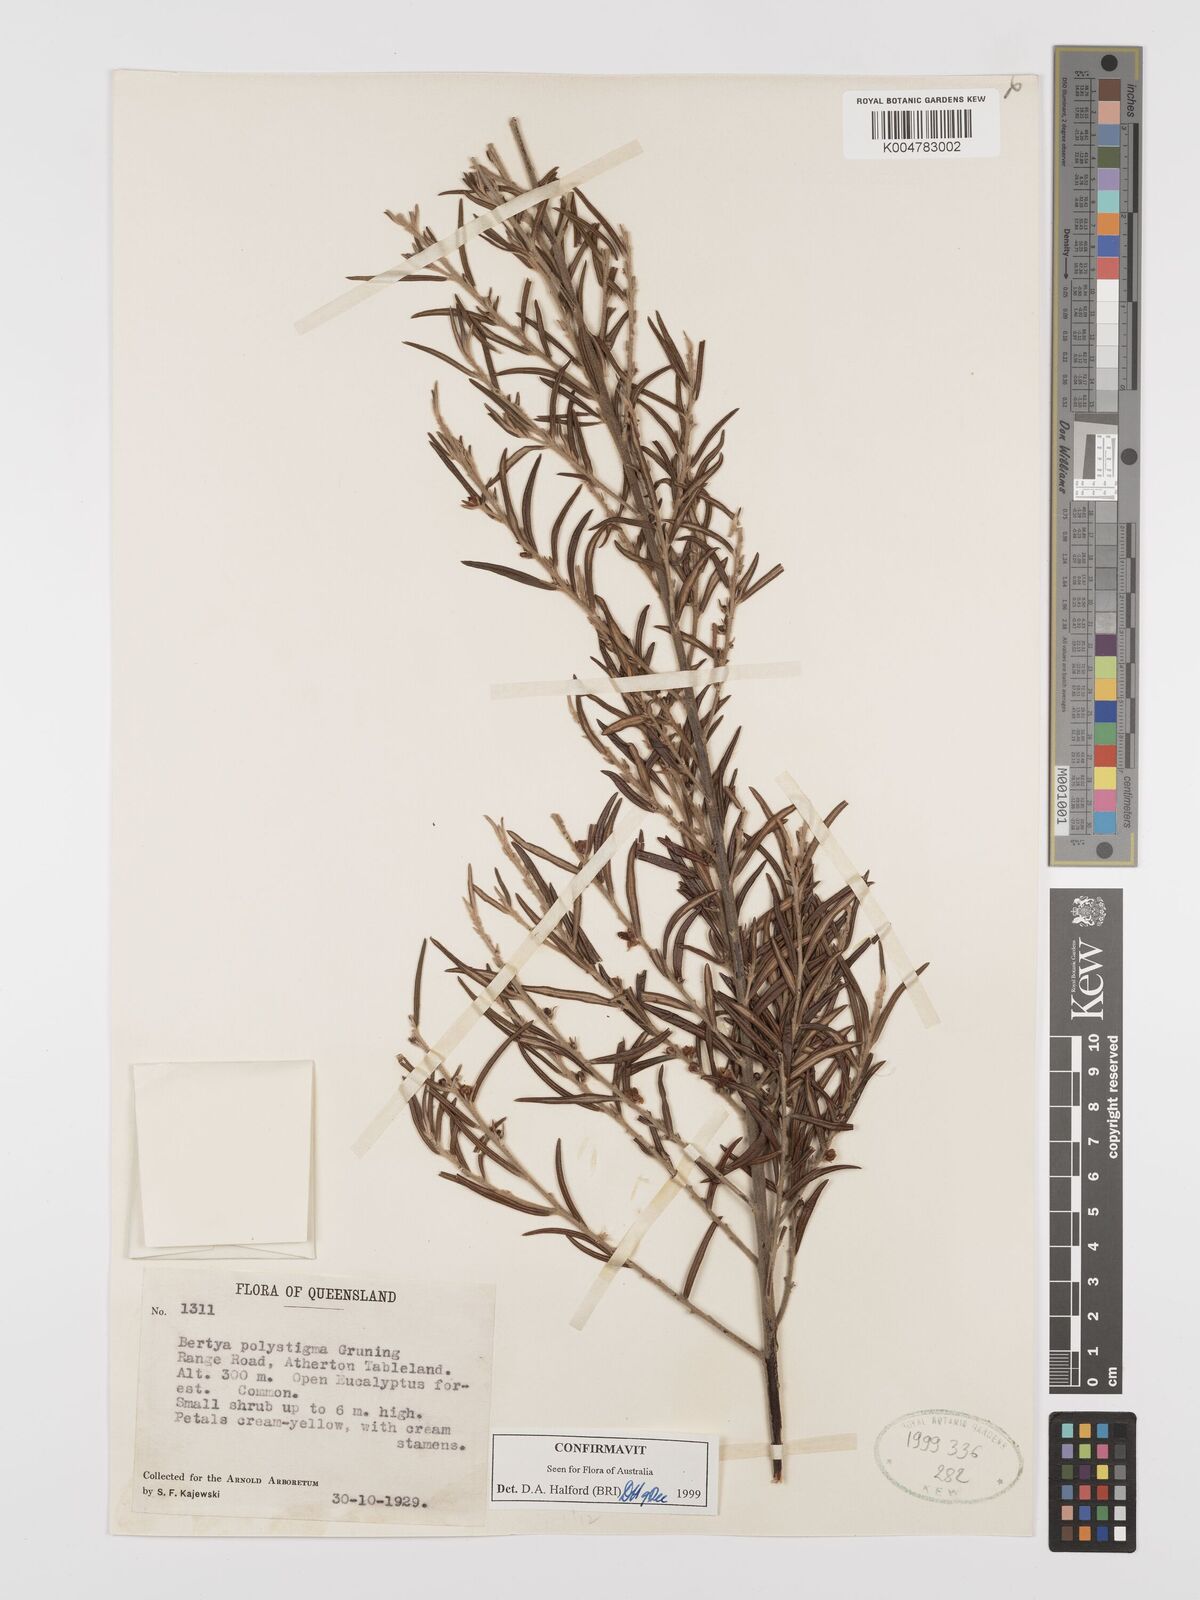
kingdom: Plantae
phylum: Tracheophyta
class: Magnoliopsida
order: Malpighiales
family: Euphorbiaceae
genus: Bertya
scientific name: Bertya polystigma
